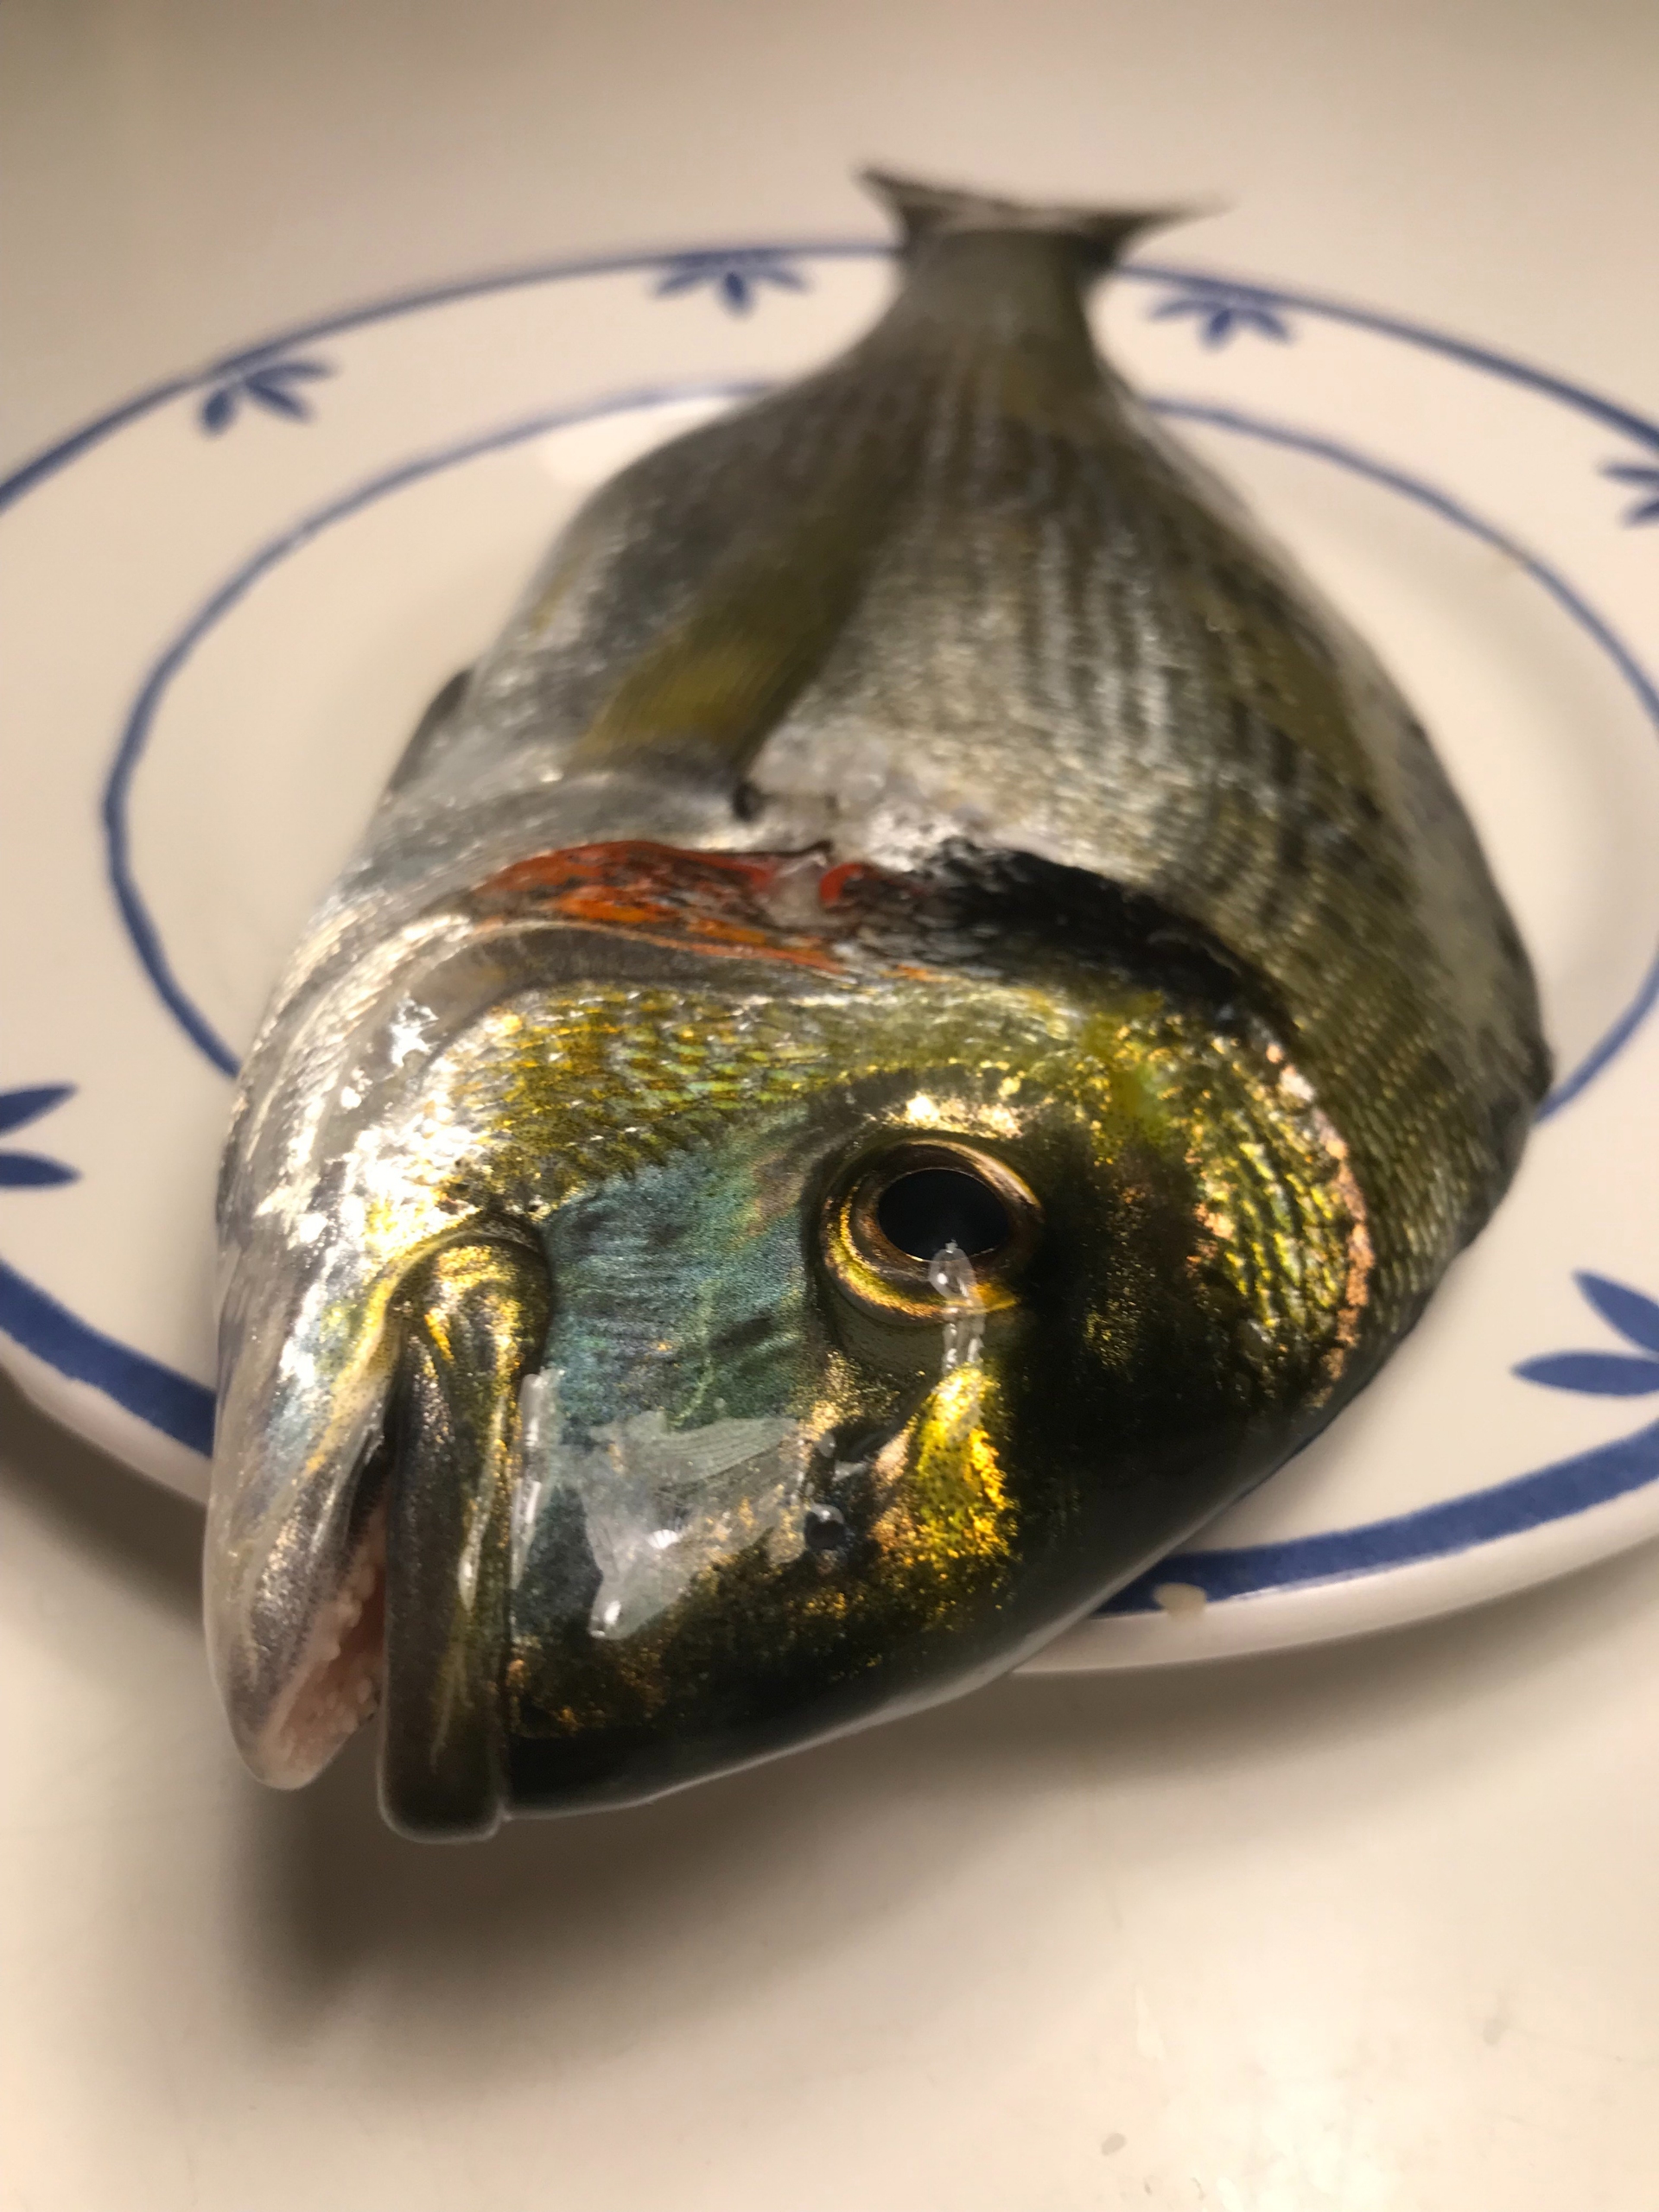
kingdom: Animalia
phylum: Chordata
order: Perciformes
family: Sparidae
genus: Sparus
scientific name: Sparus aurata
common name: Guldbrasen
